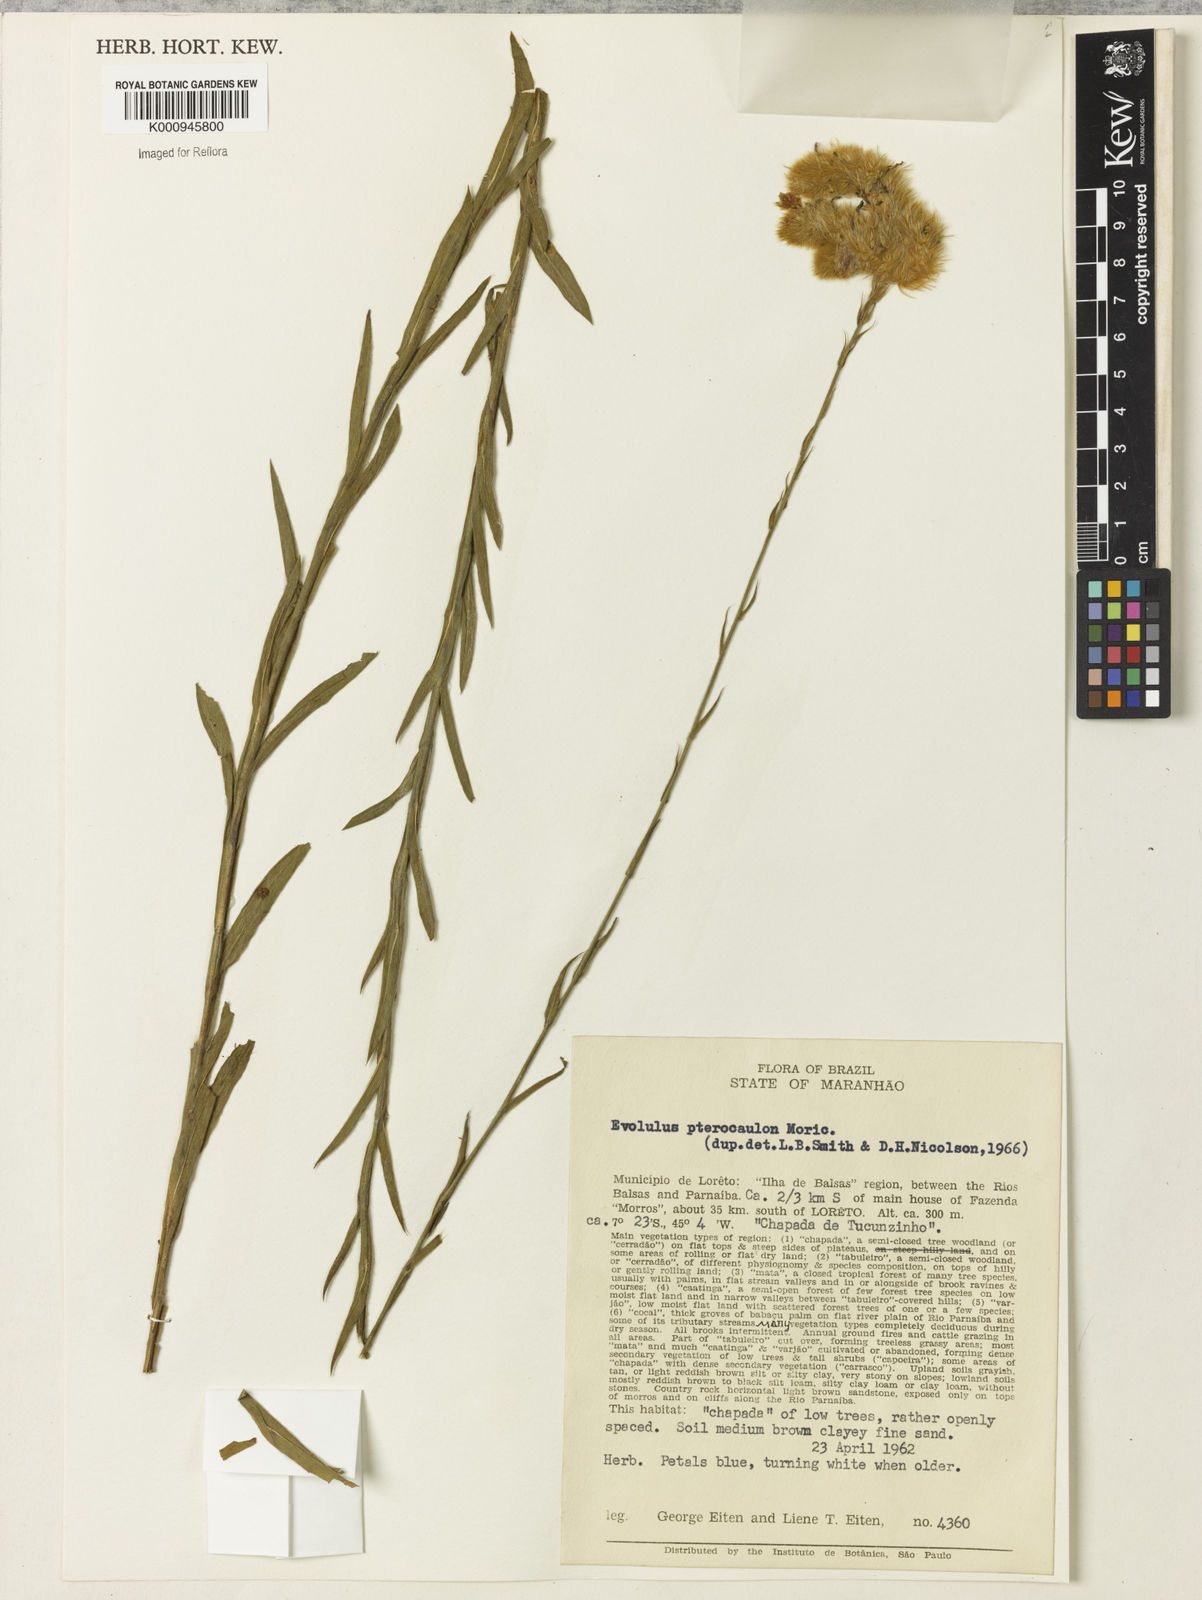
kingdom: Plantae
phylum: Tracheophyta
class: Magnoliopsida
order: Solanales
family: Convolvulaceae
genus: Evolvulus
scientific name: Evolvulus pterocaulon
